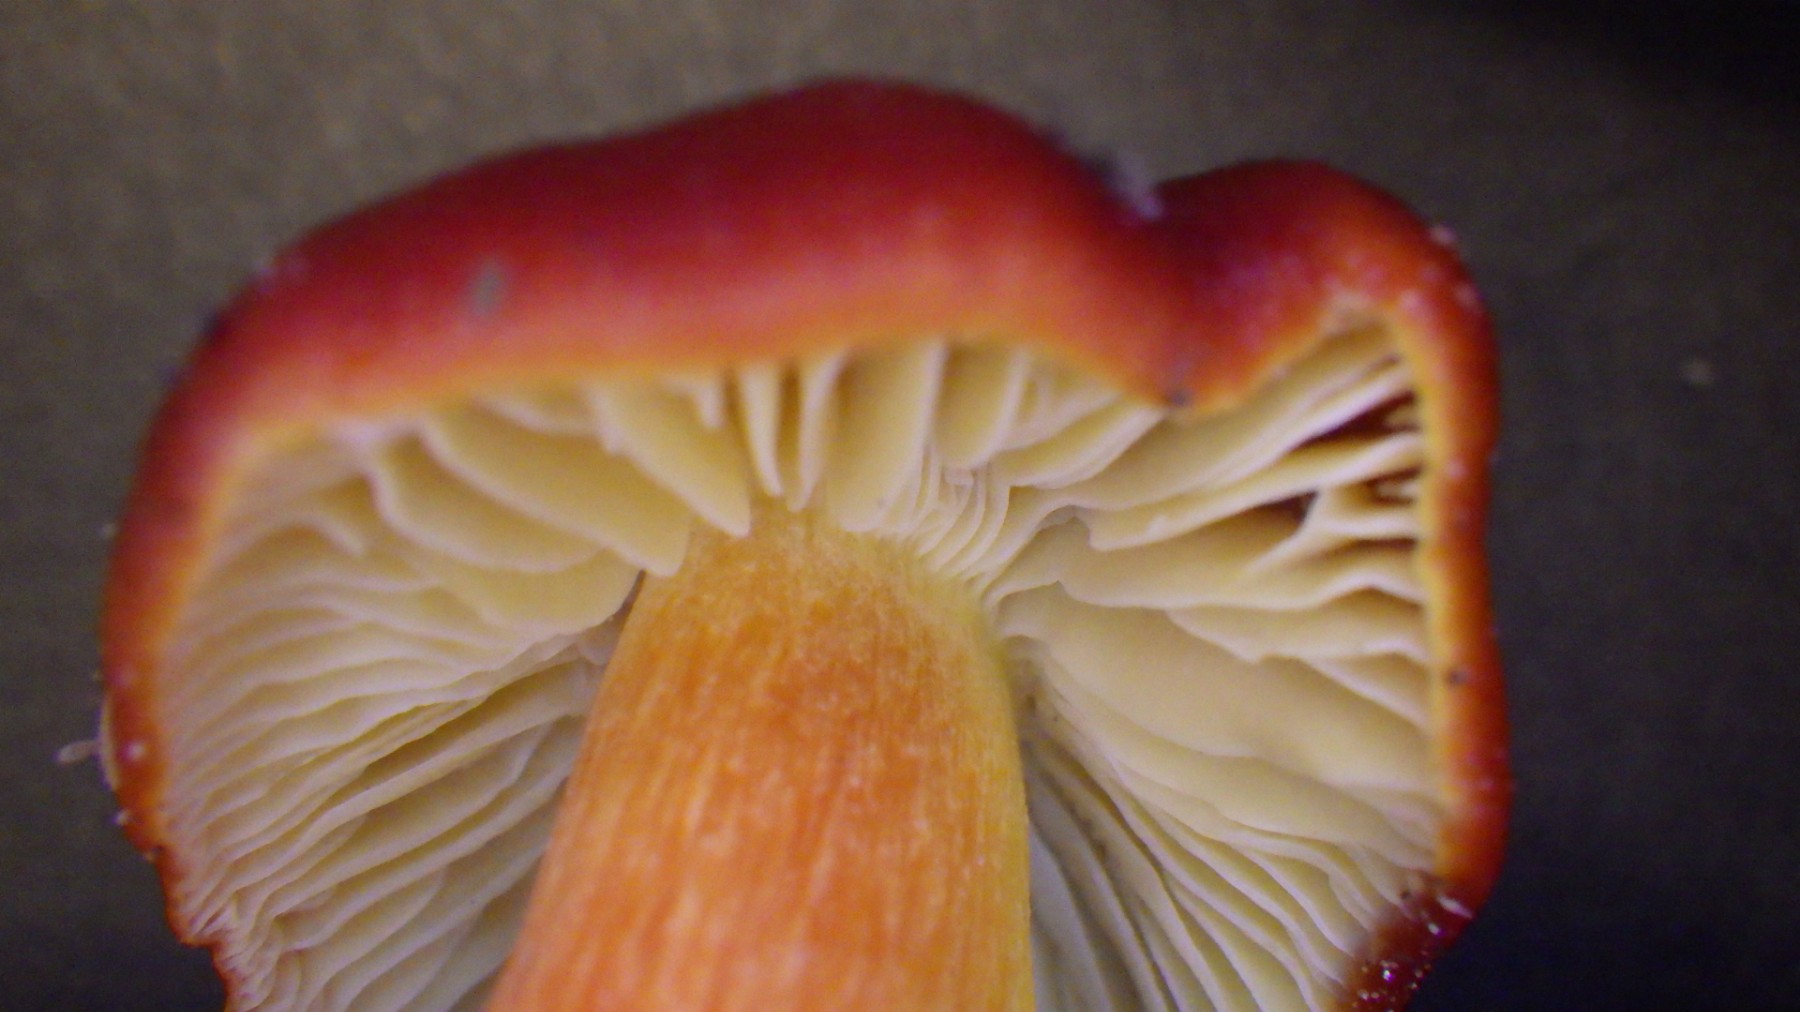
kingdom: Fungi
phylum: Basidiomycota
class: Agaricomycetes
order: Agaricales
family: Hygrophoraceae
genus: Hygrocybe
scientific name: Hygrocybe punicea
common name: skarlagen-vokshat
